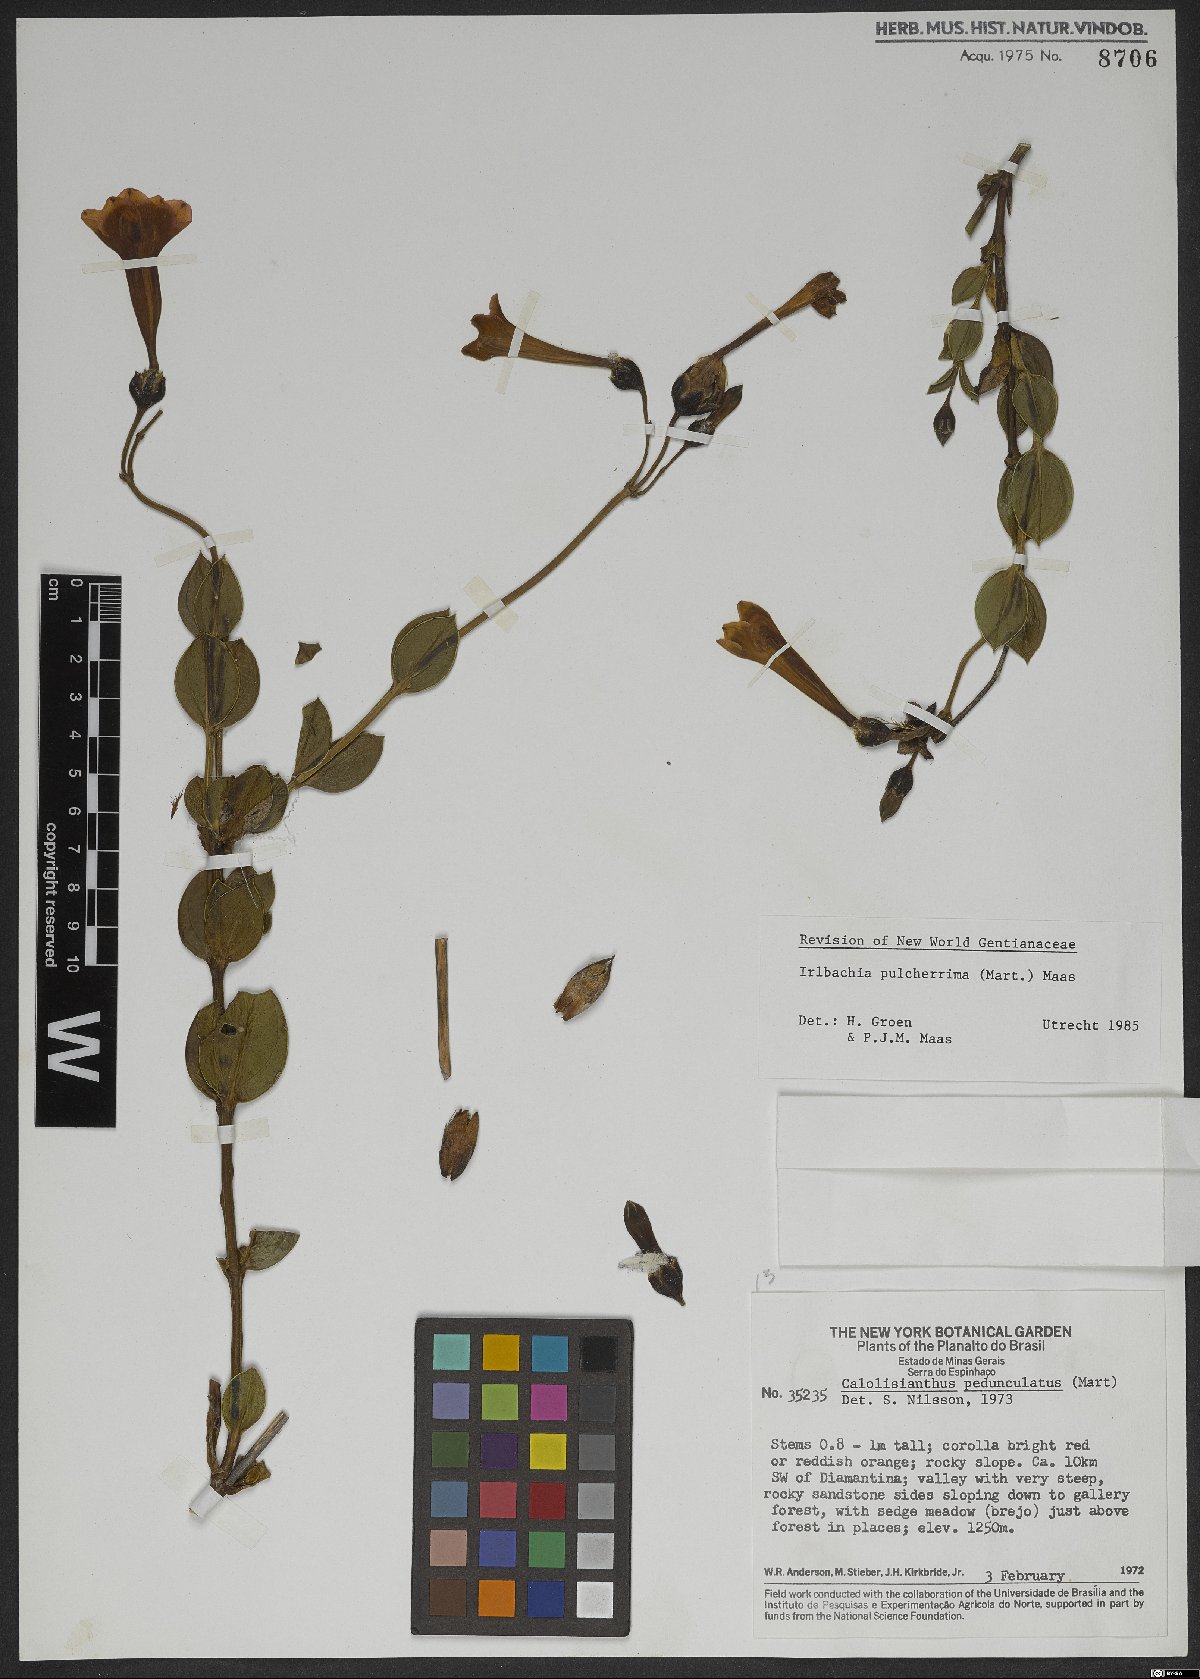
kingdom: Plantae
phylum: Tracheophyta
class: Magnoliopsida
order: Gentianales
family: Gentianaceae
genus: Calolisianthus
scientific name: Calolisianthus pulcherrimus
